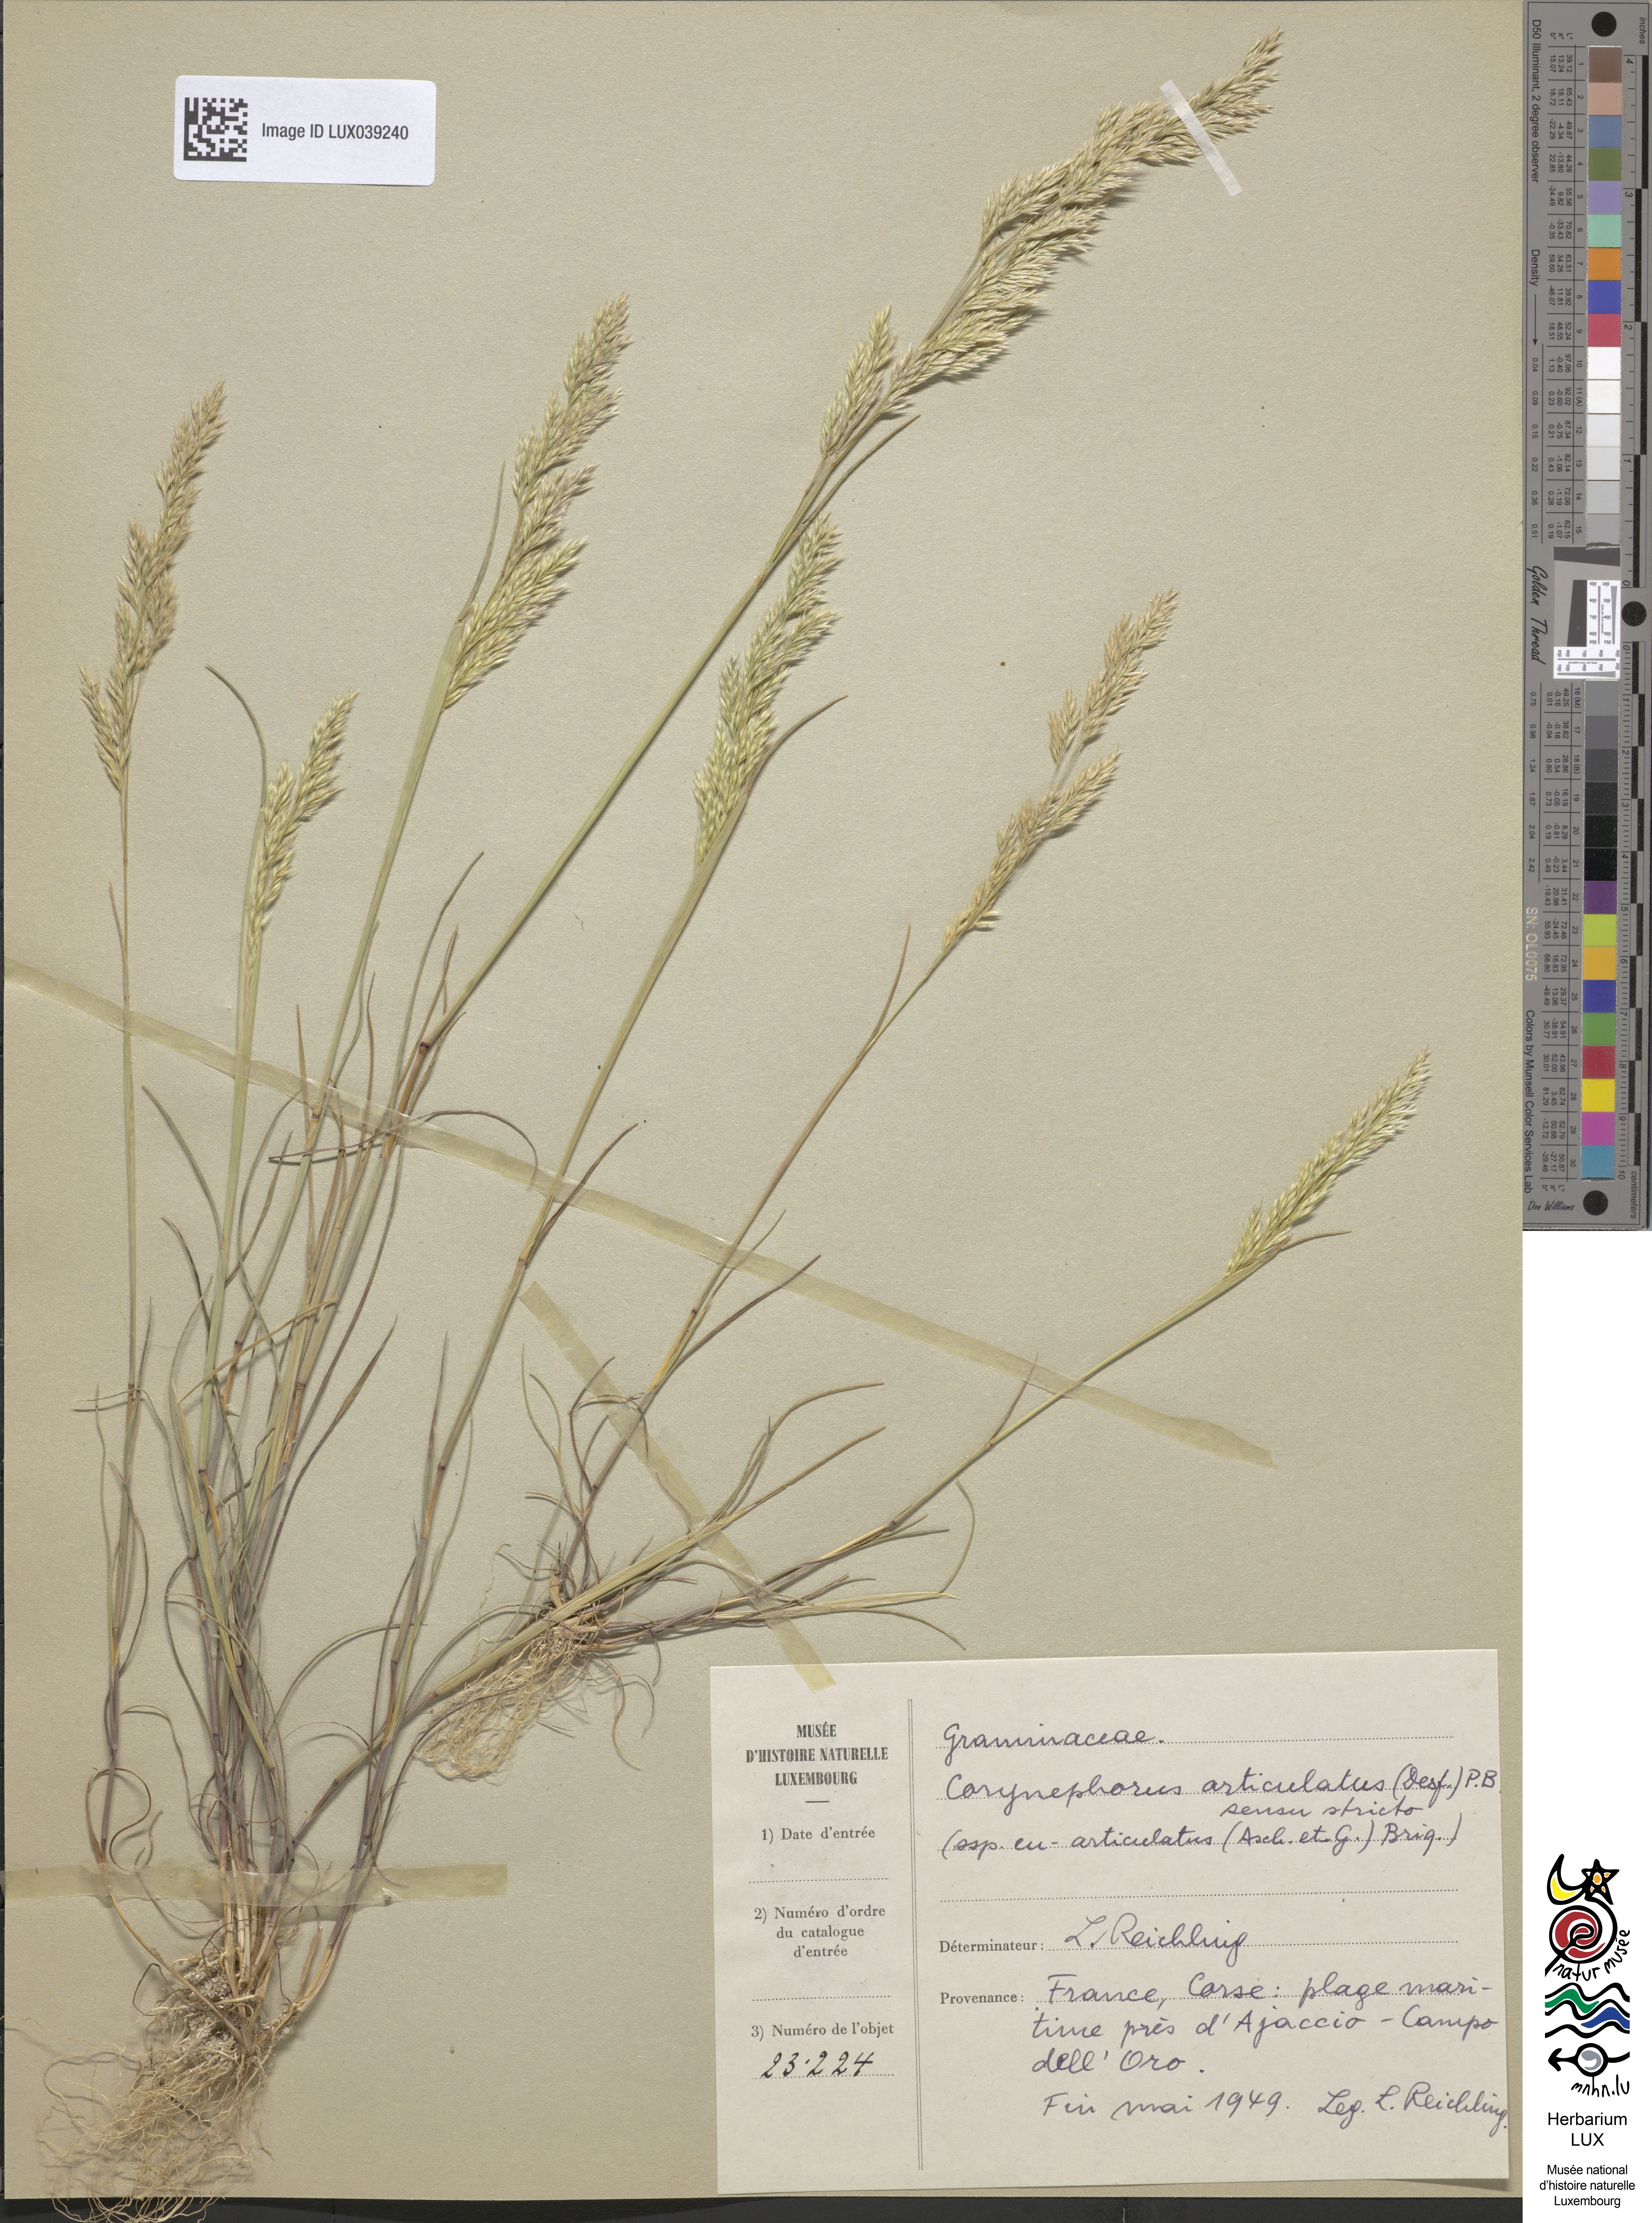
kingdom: Plantae
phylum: Tracheophyta
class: Liliopsida
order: Poales
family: Poaceae
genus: Corynephorus
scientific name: Corynephorus divaricatus
